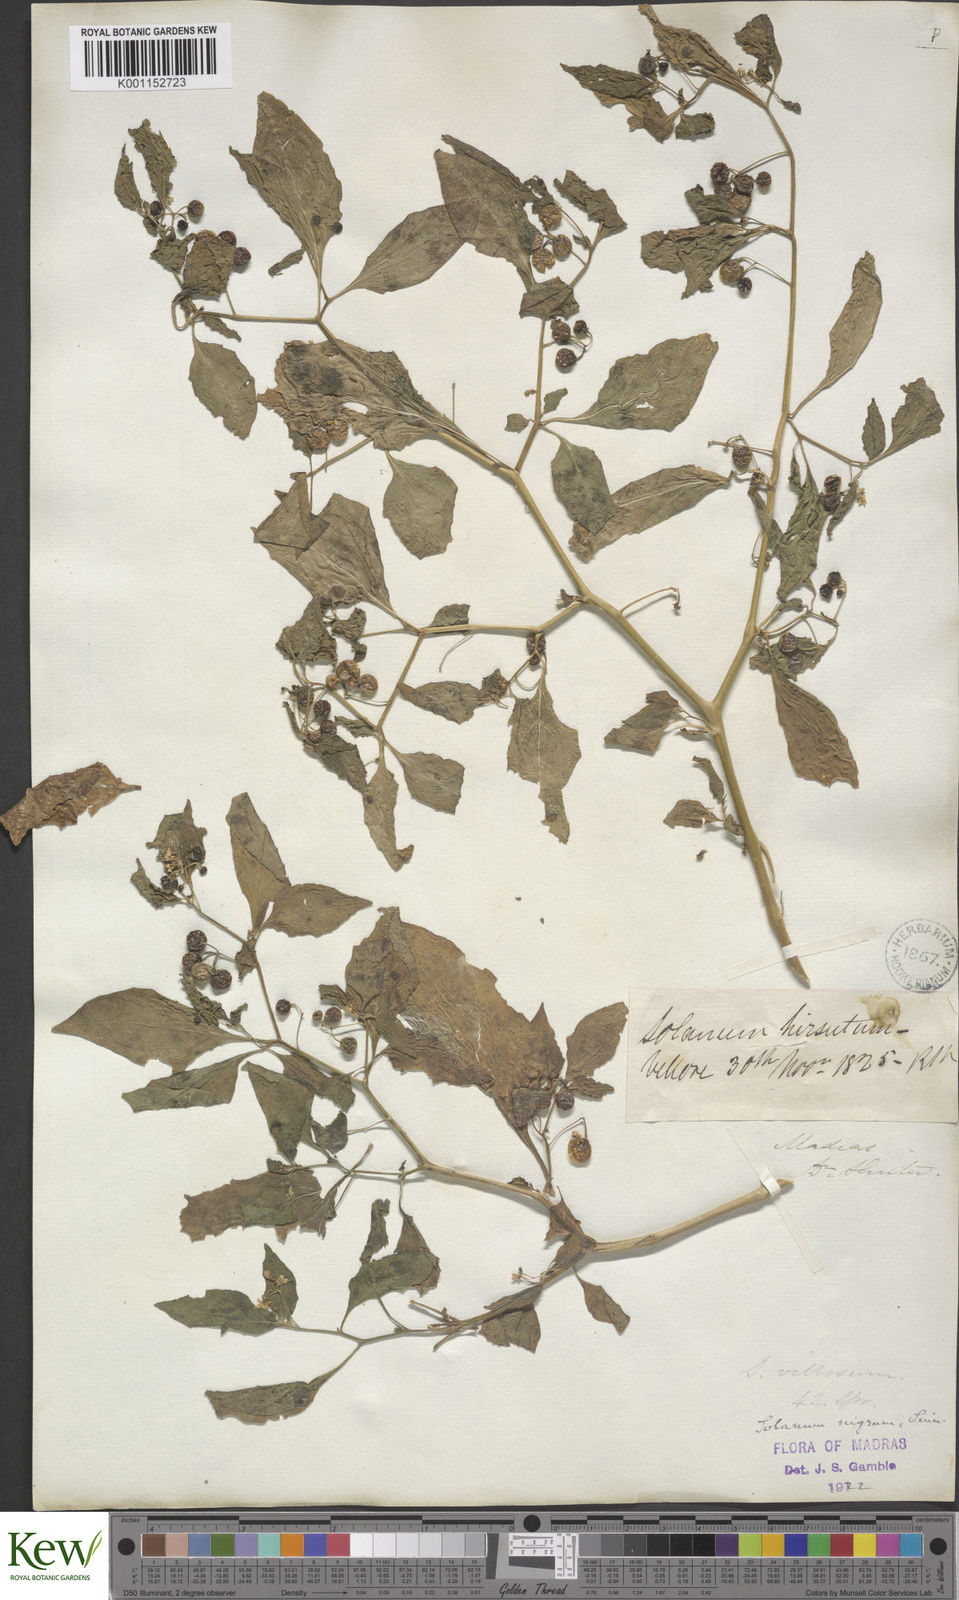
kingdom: Plantae
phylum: Tracheophyta
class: Magnoliopsida
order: Solanales
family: Solanaceae
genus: Solanum
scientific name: Solanum nigrum
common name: Black nightshade
